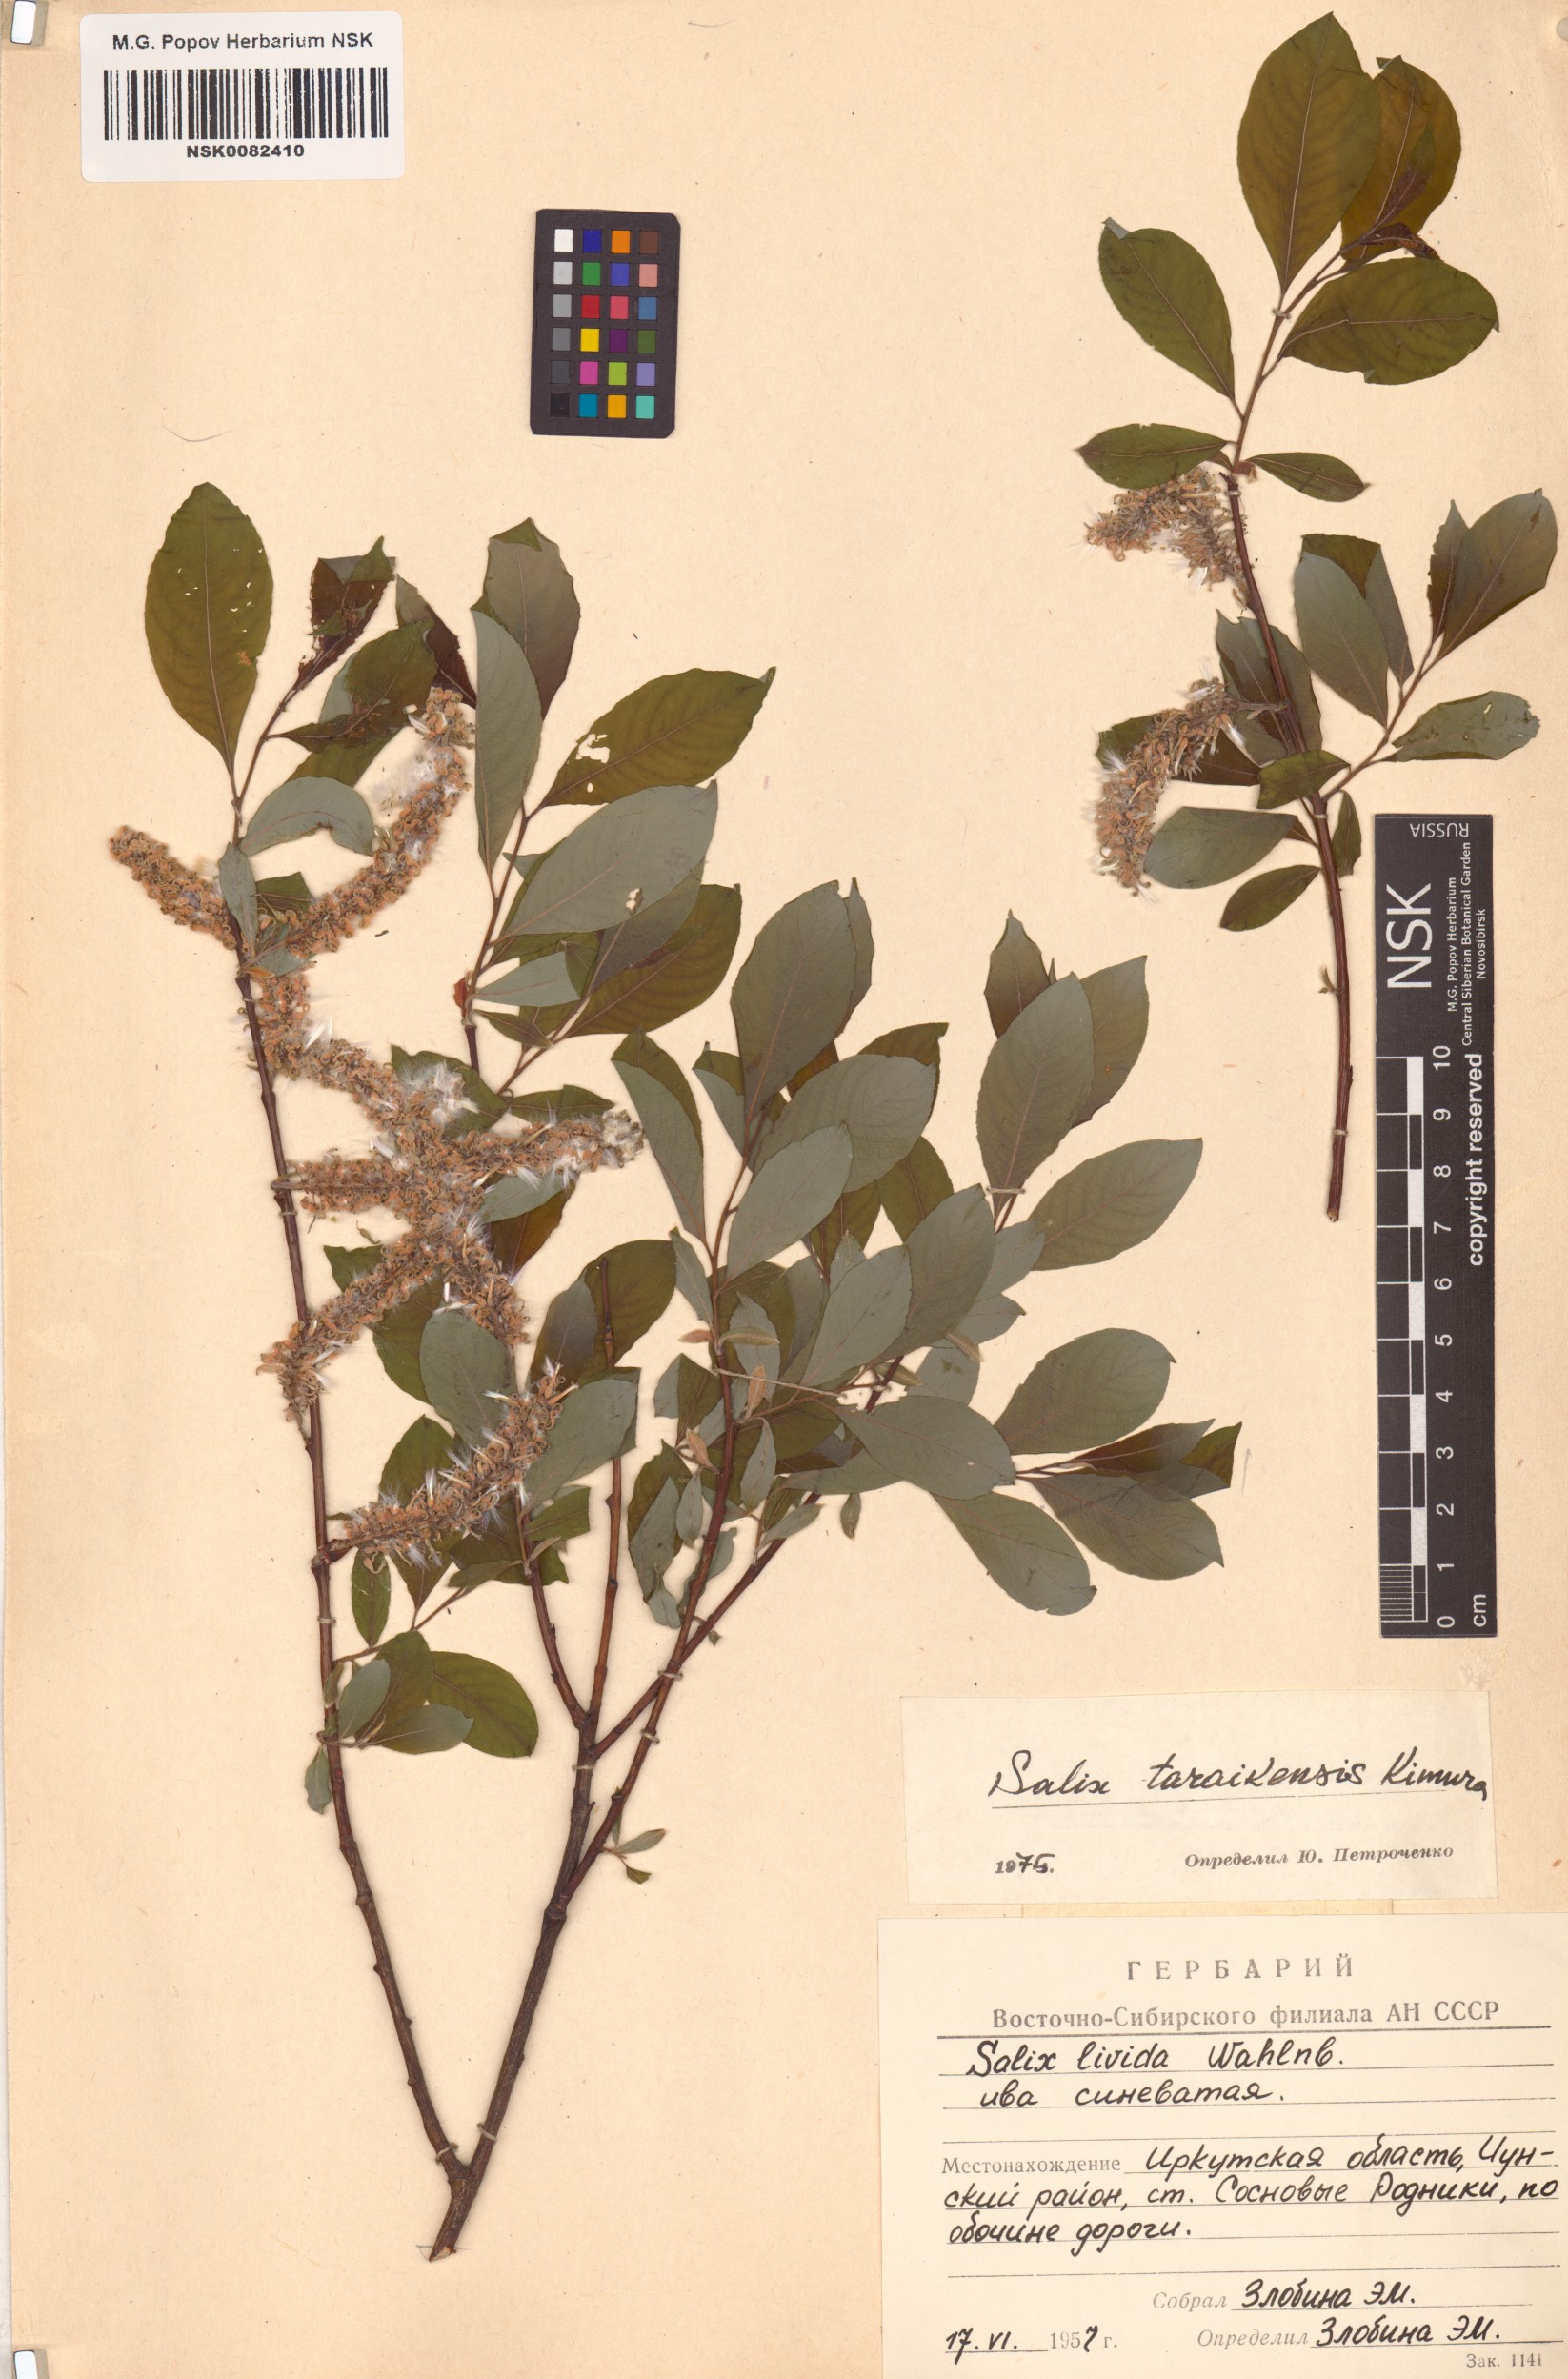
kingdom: Plantae
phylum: Tracheophyta
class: Magnoliopsida
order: Malpighiales
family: Salicaceae
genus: Salix
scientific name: Salix taraikensis
